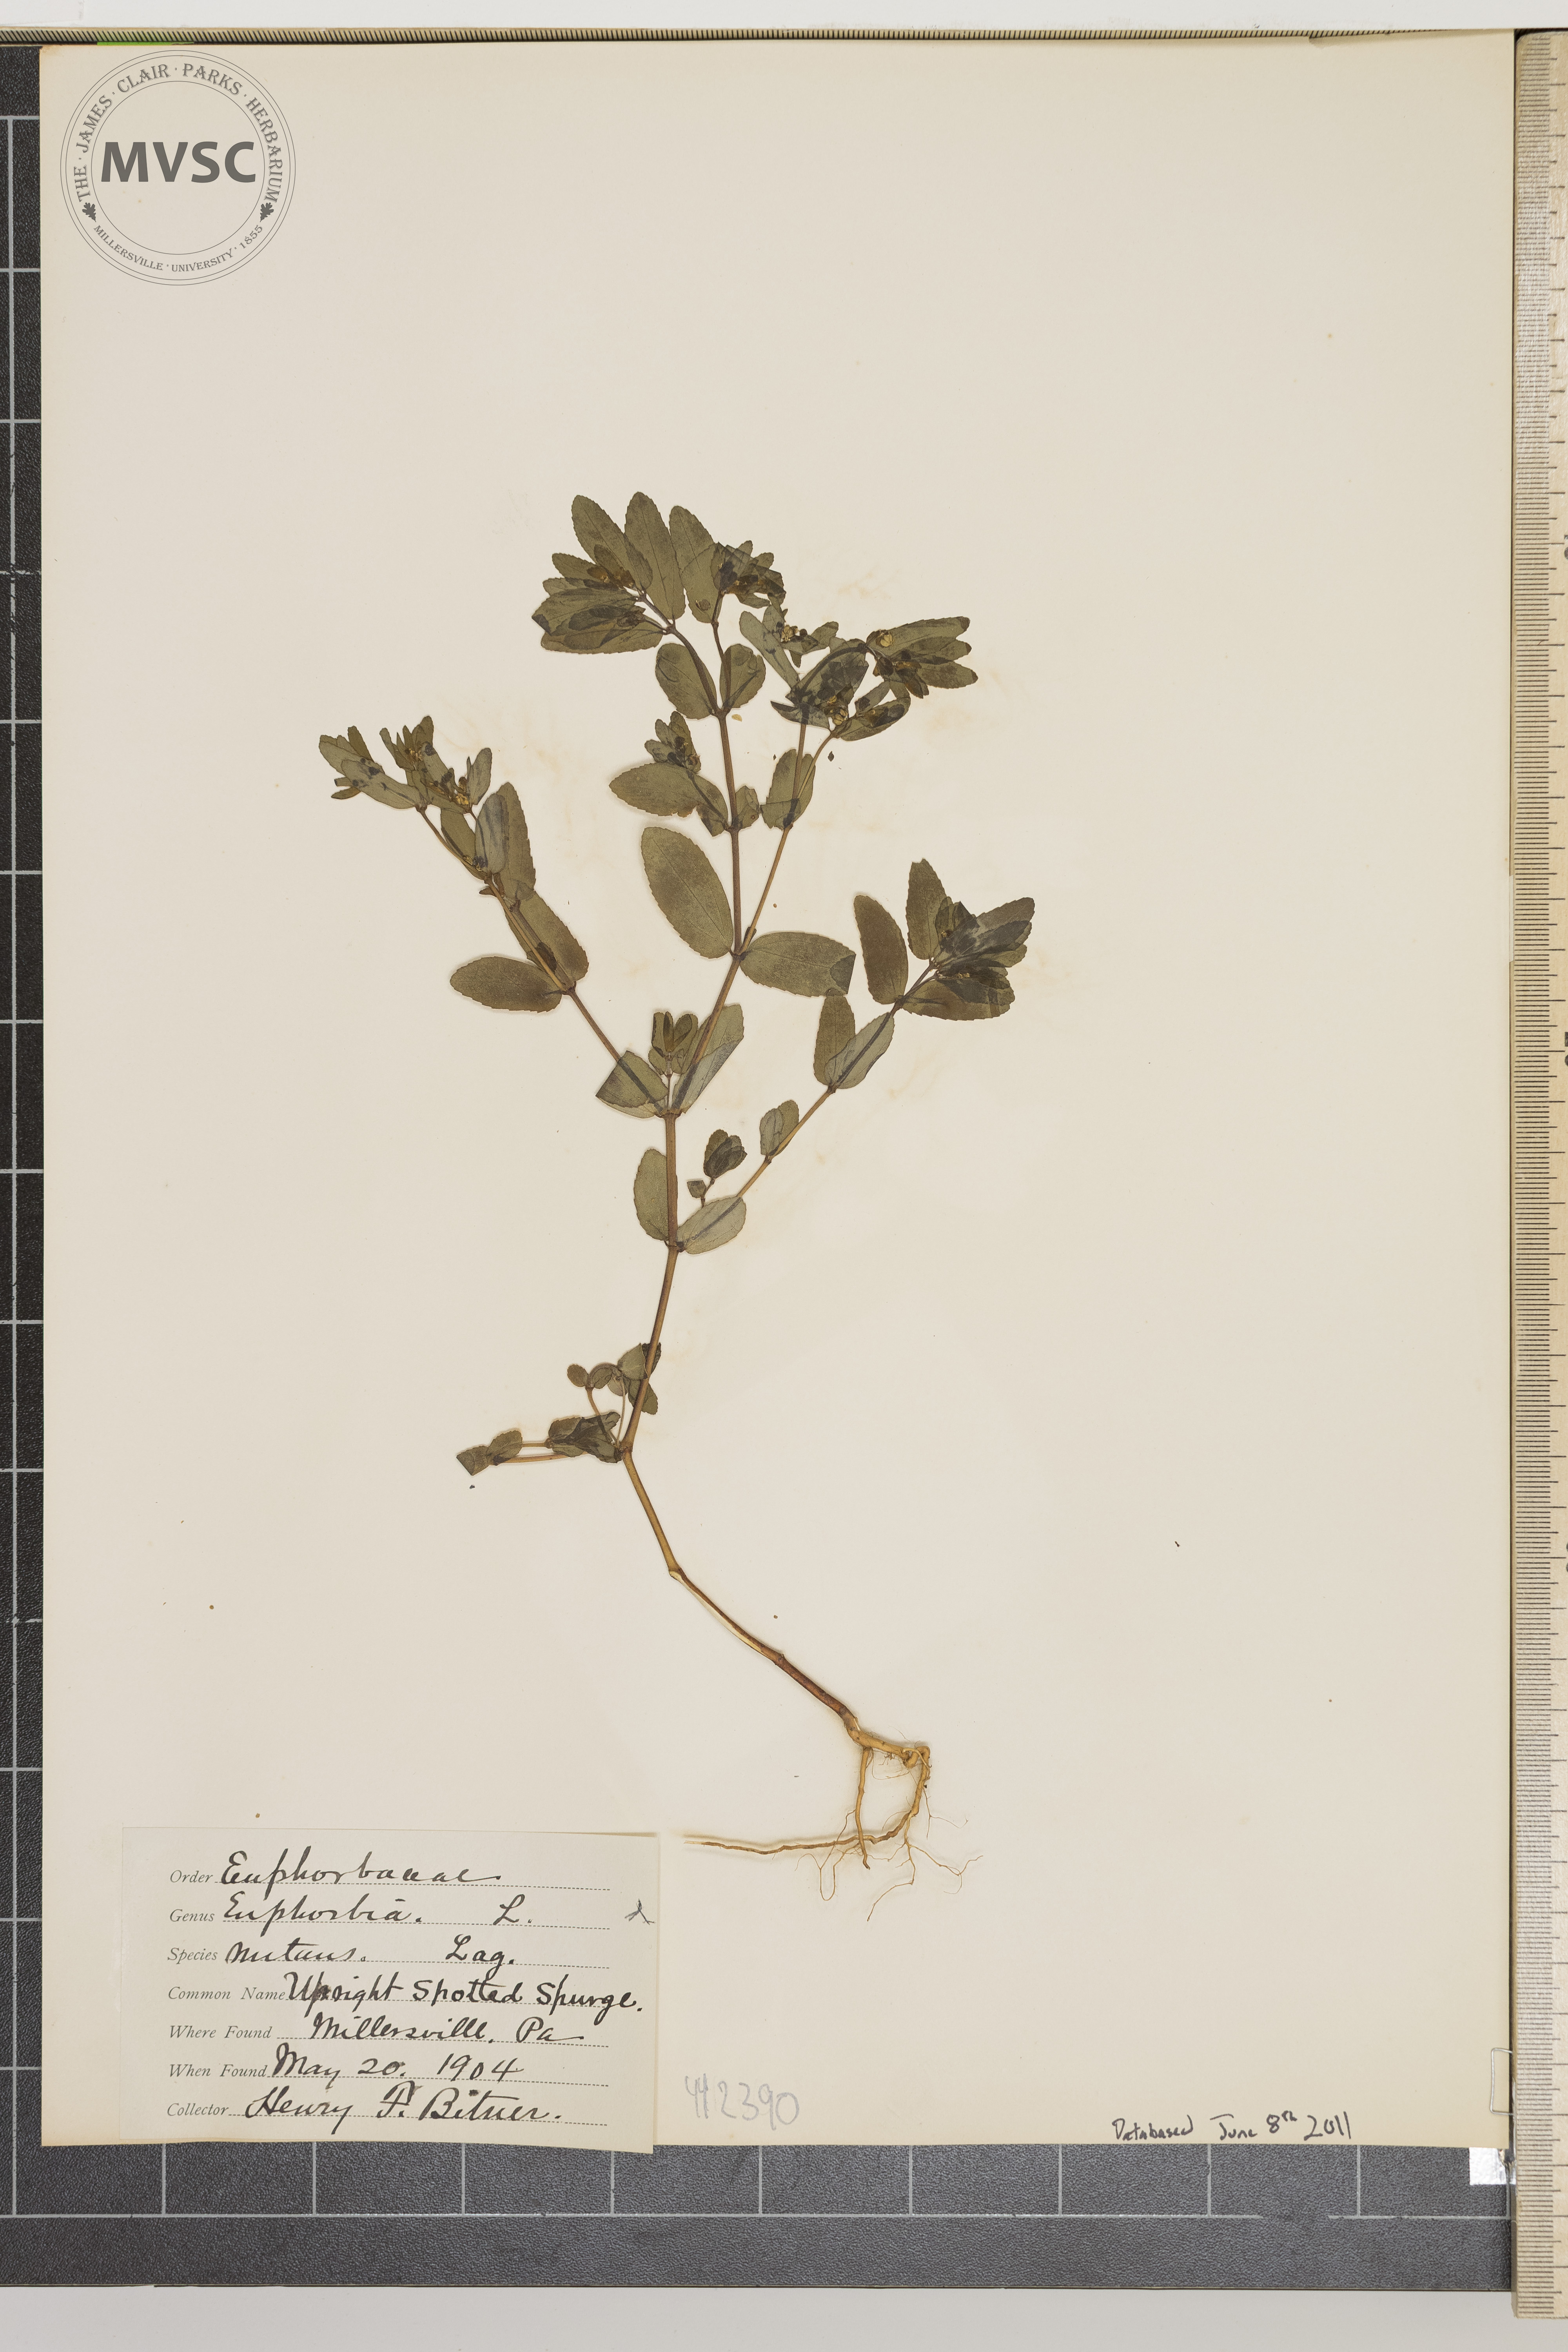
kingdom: Plantae
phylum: Tracheophyta
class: Magnoliopsida
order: Malpighiales
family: Euphorbiaceae
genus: Euphorbia
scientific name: Euphorbia nutans
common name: Upright spotted spurge
